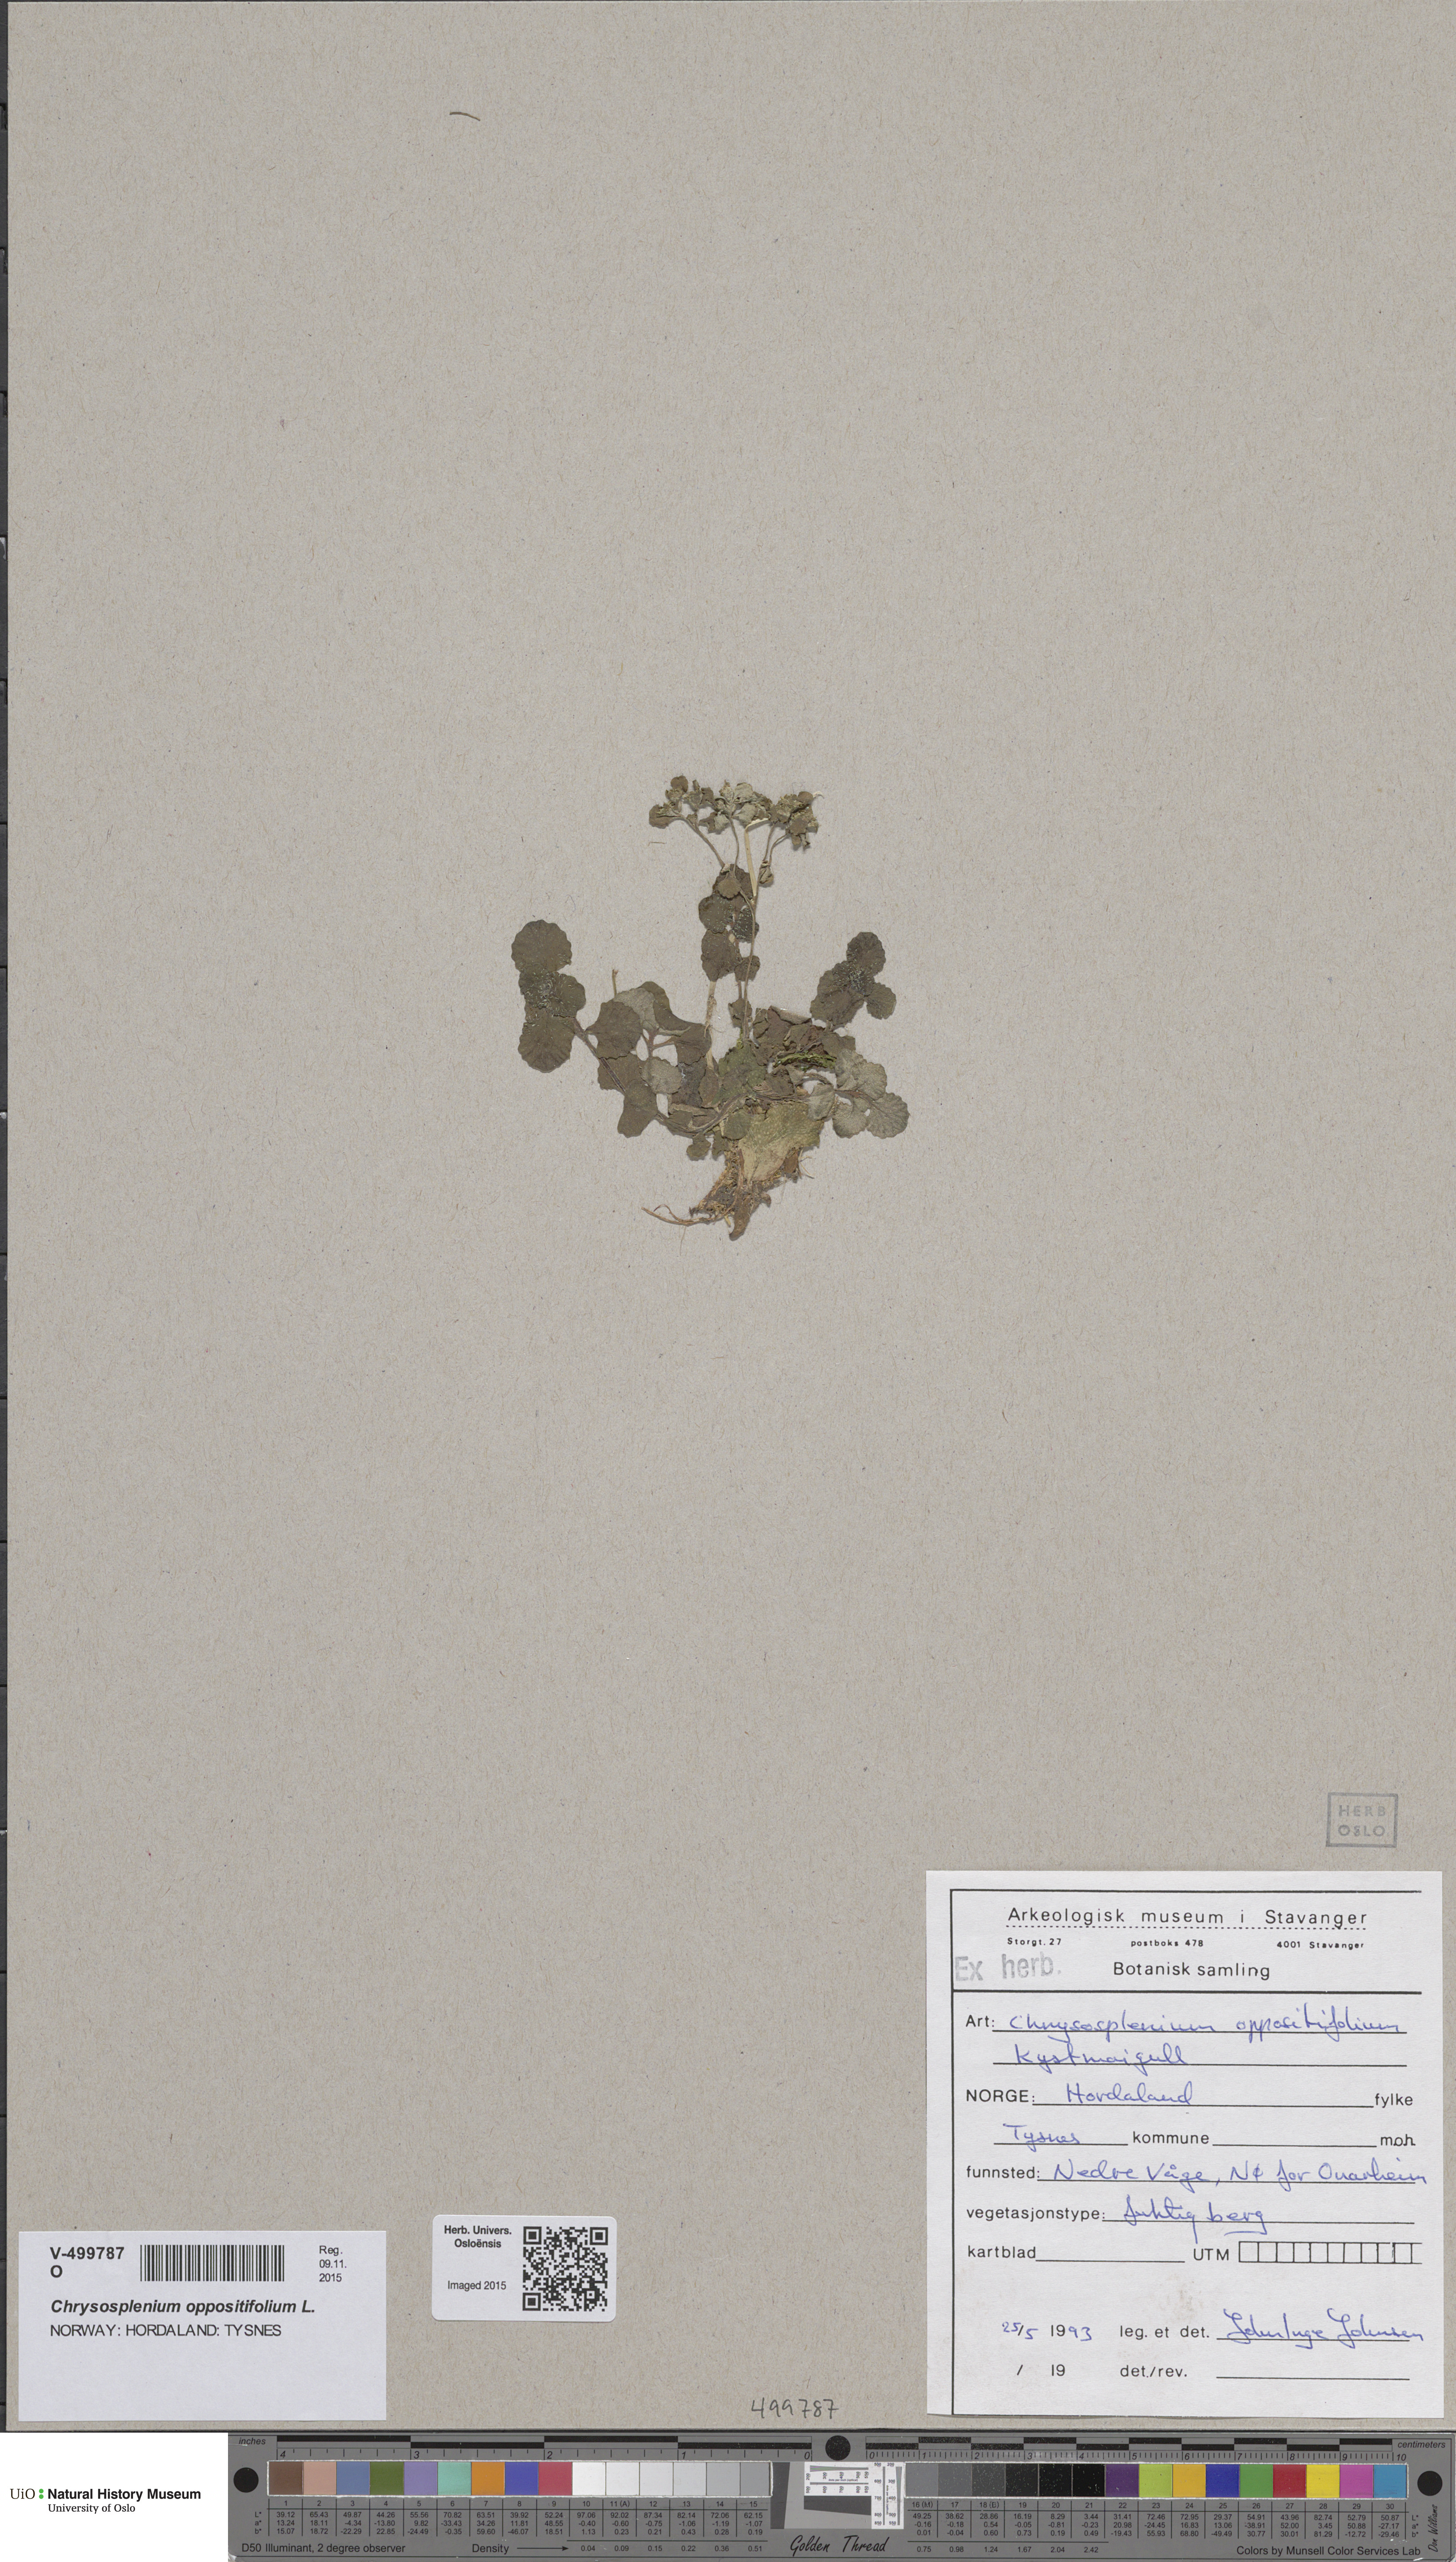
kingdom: Plantae
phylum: Tracheophyta
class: Magnoliopsida
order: Saxifragales
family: Saxifragaceae
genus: Chrysosplenium
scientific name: Chrysosplenium oppositifolium
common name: Opposite-leaved golden-saxifrage
